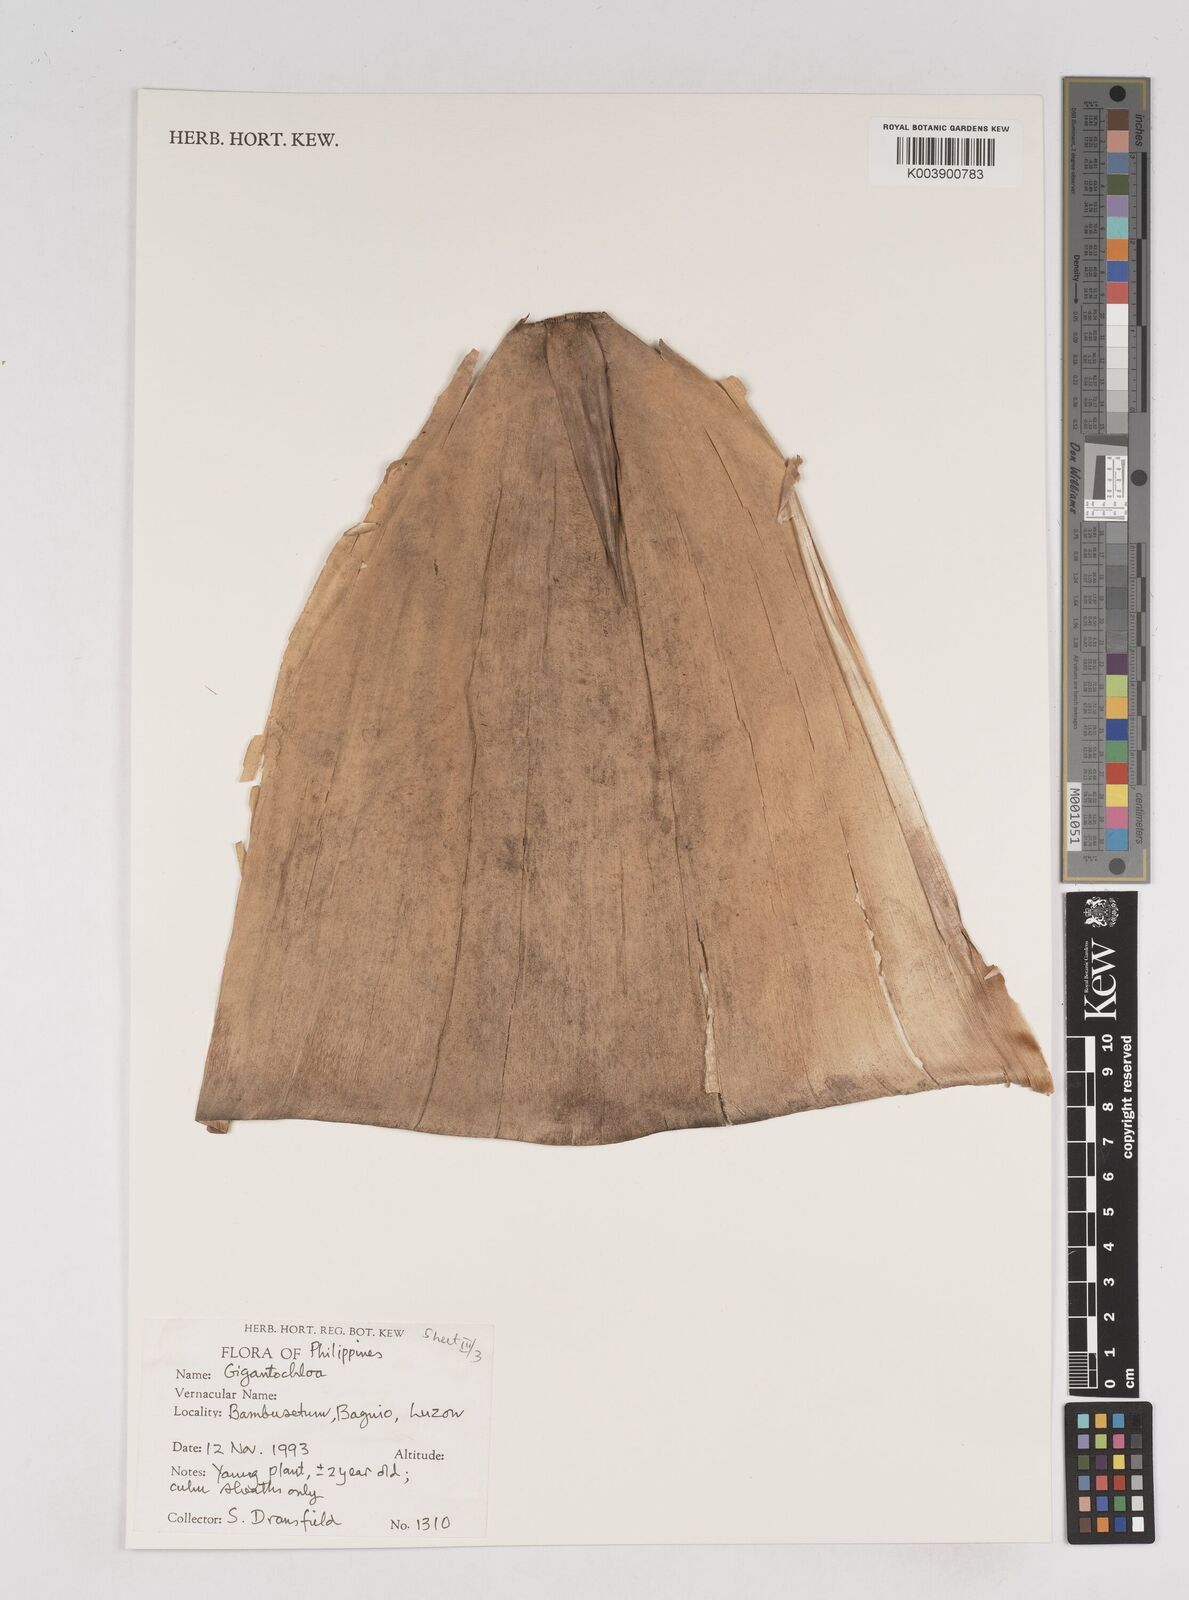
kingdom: Plantae
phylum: Tracheophyta
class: Liliopsida
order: Poales
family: Poaceae
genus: Gigantochloa
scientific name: Gigantochloa
